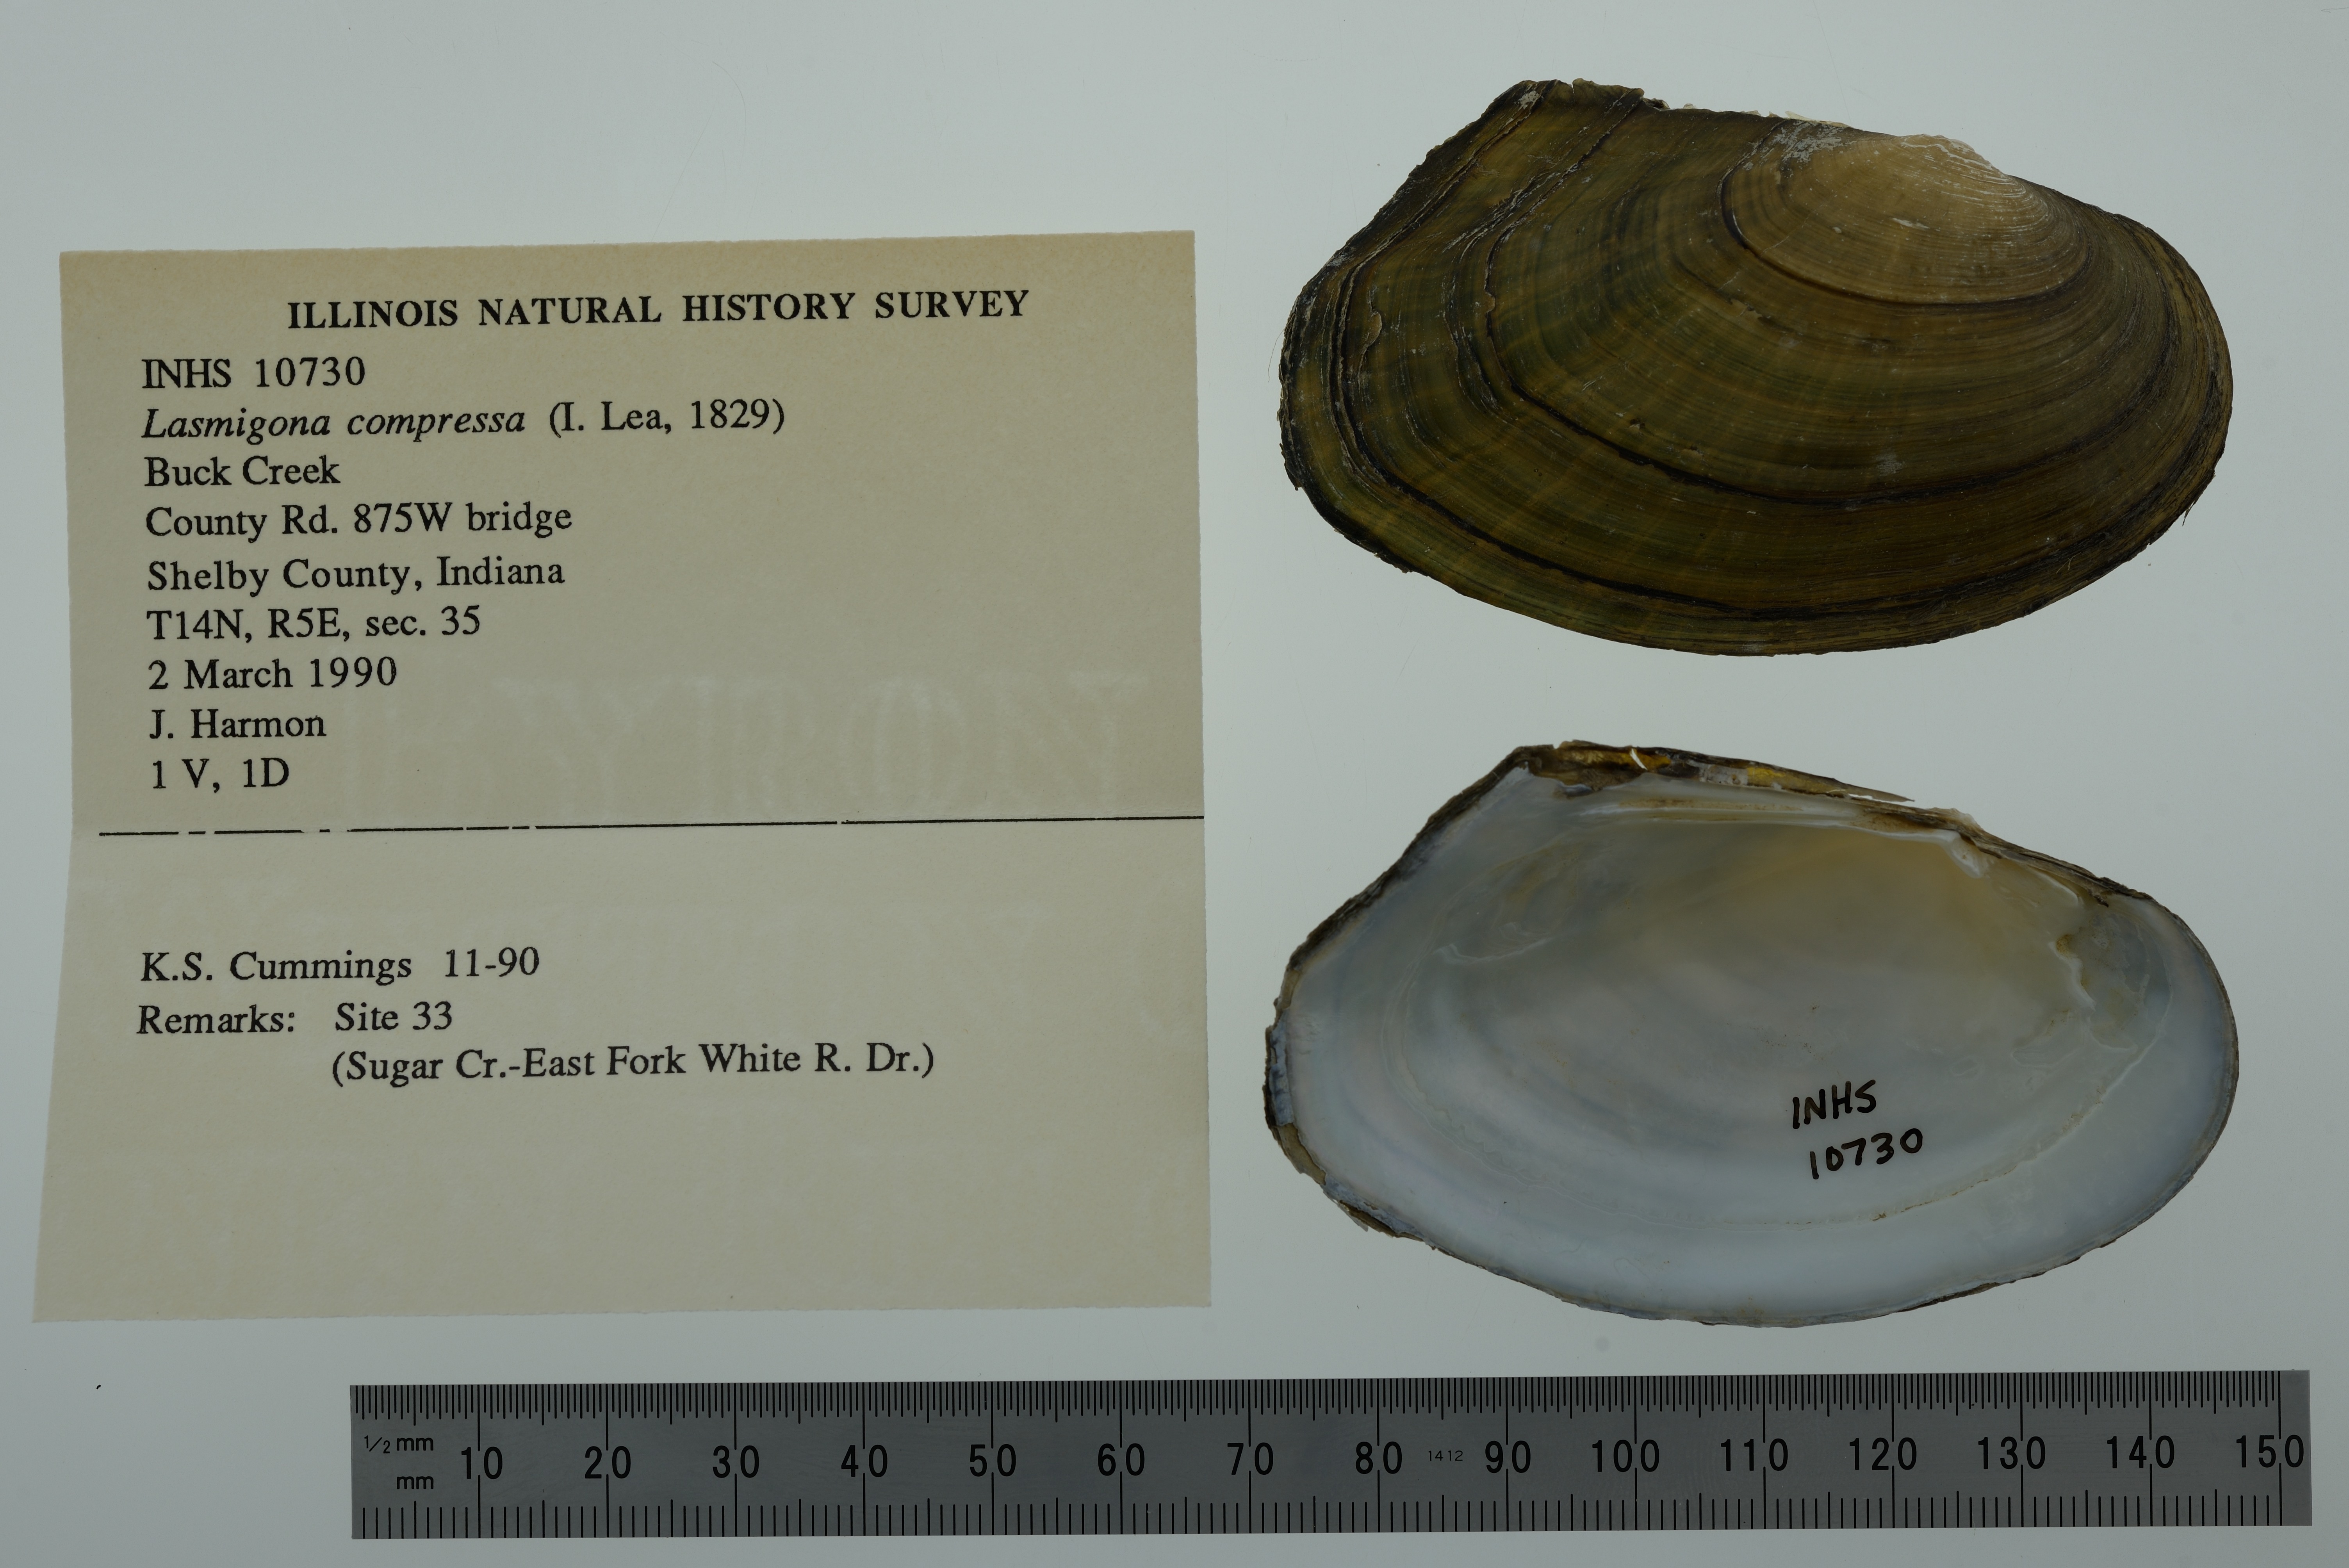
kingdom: Animalia
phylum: Mollusca
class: Bivalvia
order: Unionida
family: Unionidae
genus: Lasmigona
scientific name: Lasmigona compressa
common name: Creek heelsplitter
